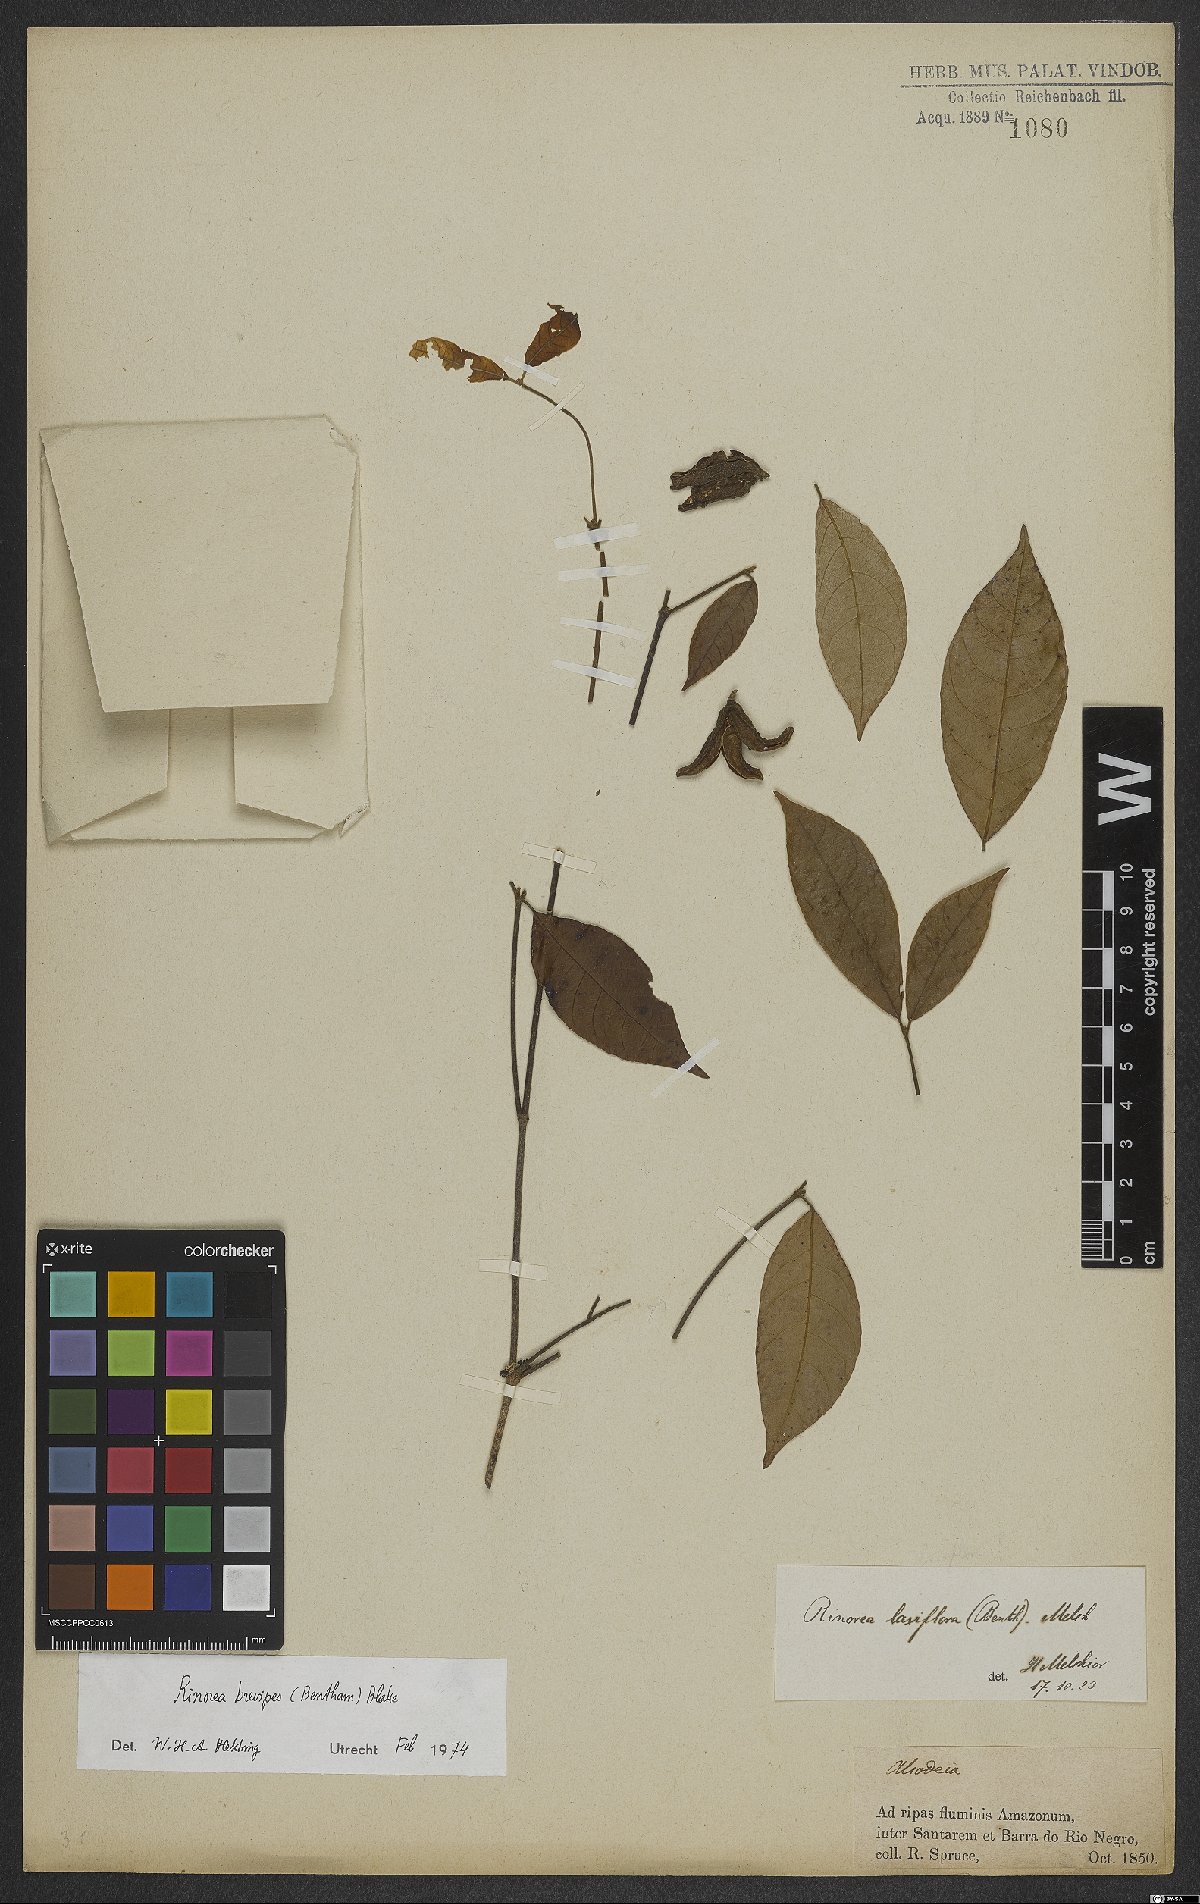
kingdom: Plantae
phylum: Tracheophyta
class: Magnoliopsida
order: Malpighiales
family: Violaceae
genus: Rinorea
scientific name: Rinorea brevipes
